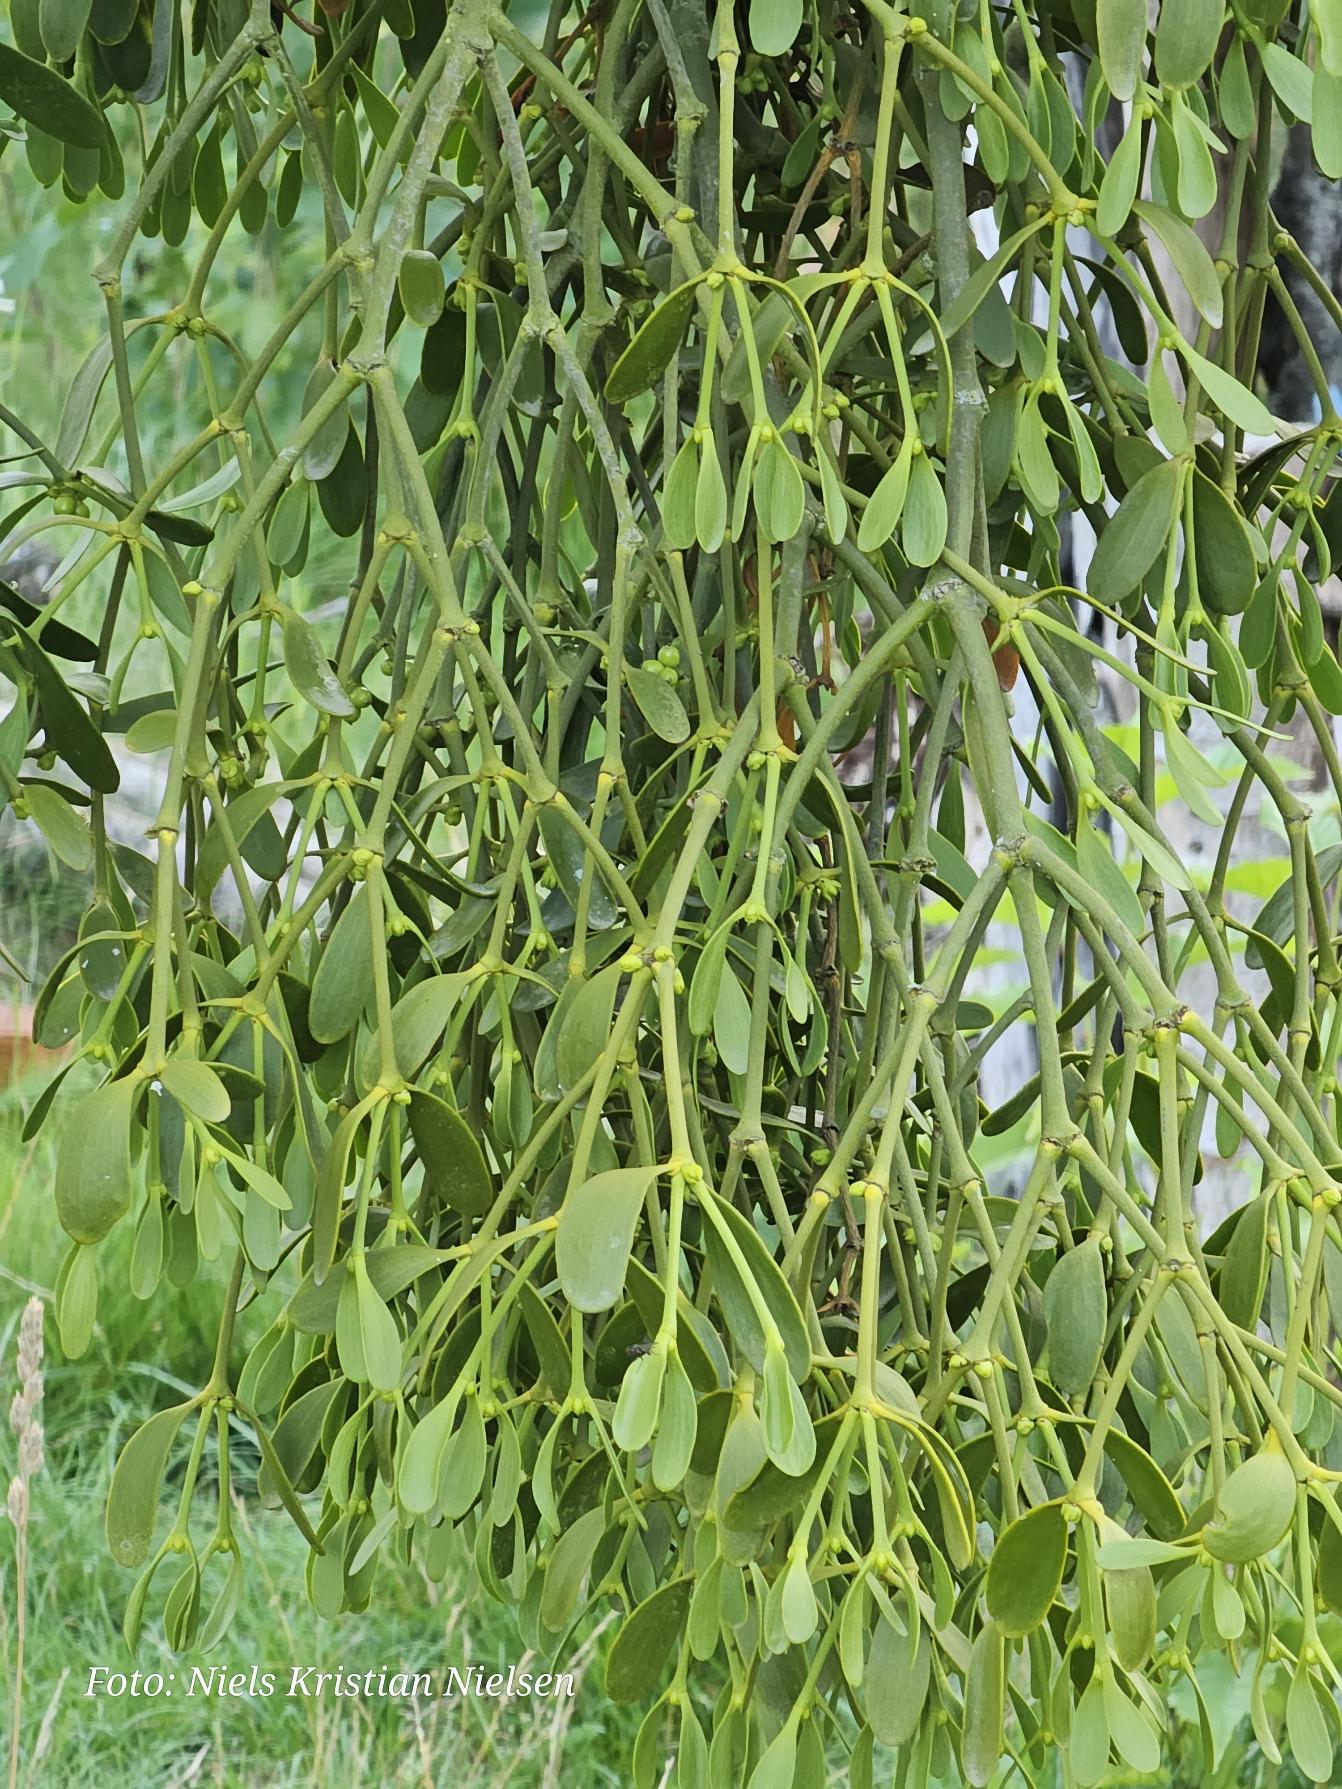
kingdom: Plantae
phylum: Tracheophyta
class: Magnoliopsida
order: Santalales
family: Viscaceae
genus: Viscum
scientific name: Viscum album
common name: Mistelten
